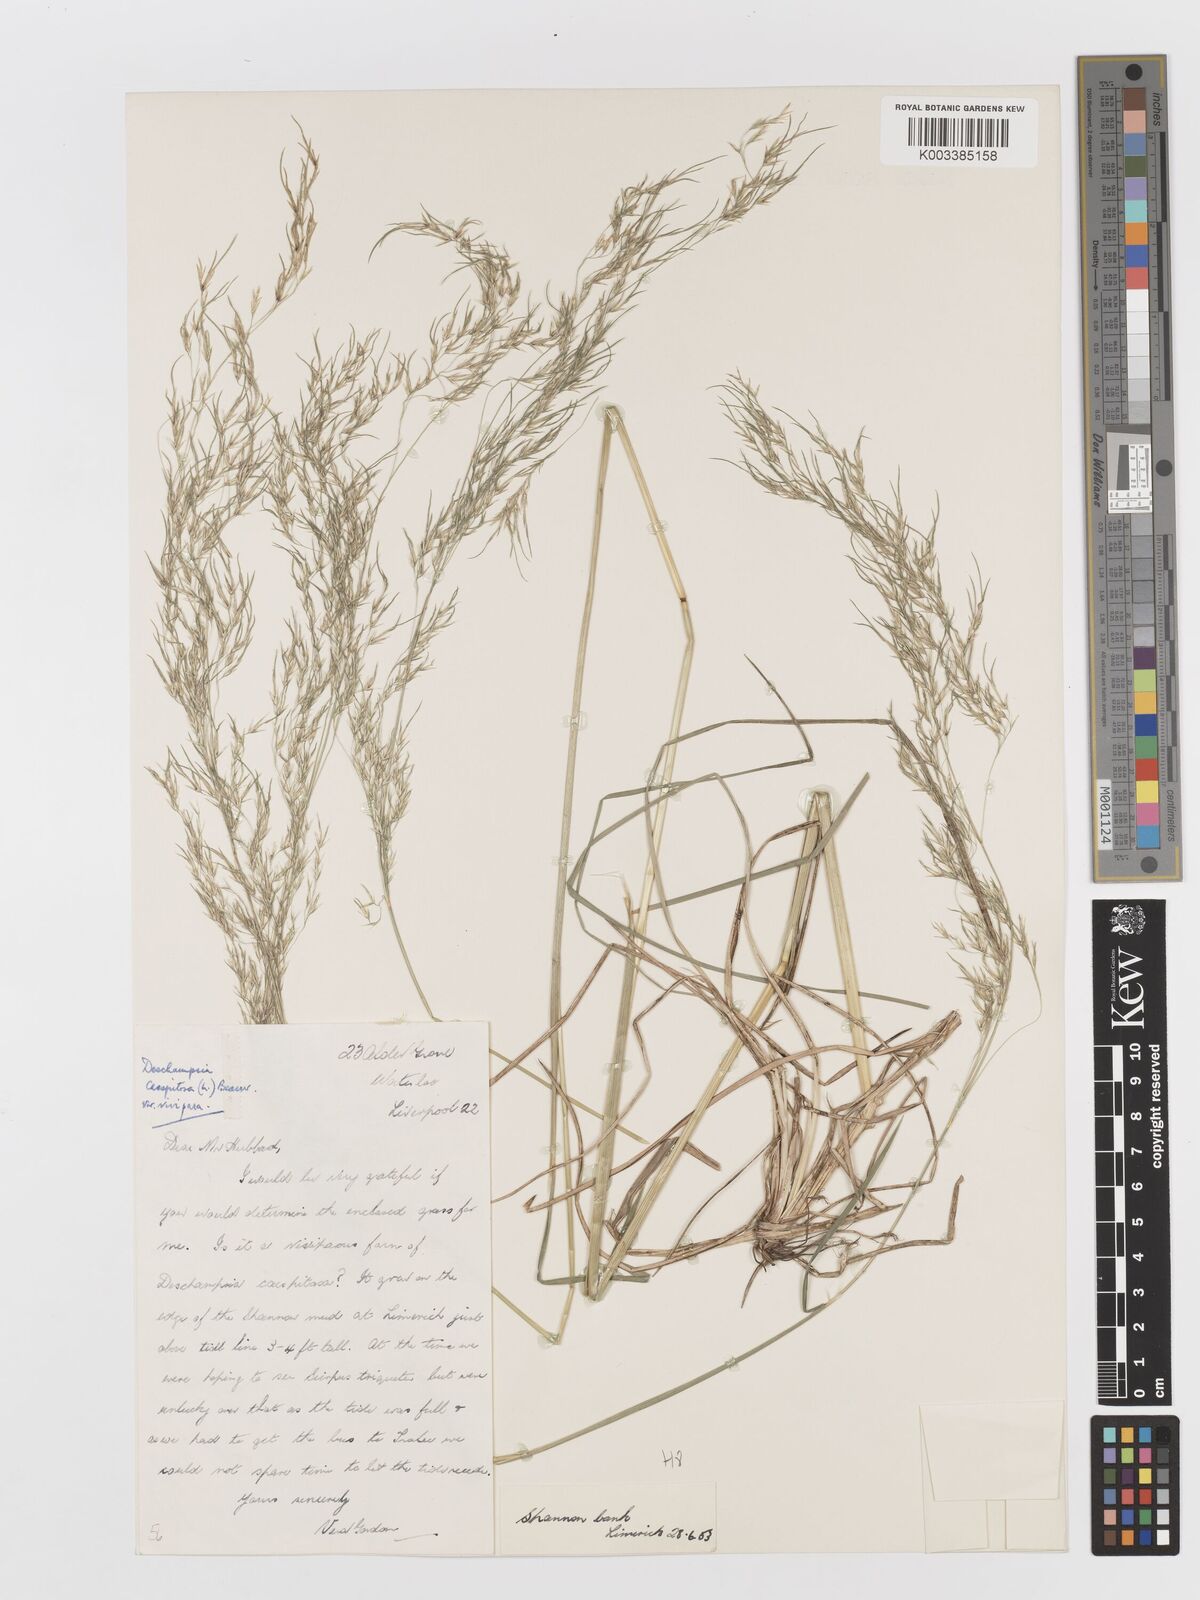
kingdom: Plantae
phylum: Tracheophyta
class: Liliopsida
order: Poales
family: Poaceae
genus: Deschampsia
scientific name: Deschampsia cespitosa
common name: Tufted hair-grass
